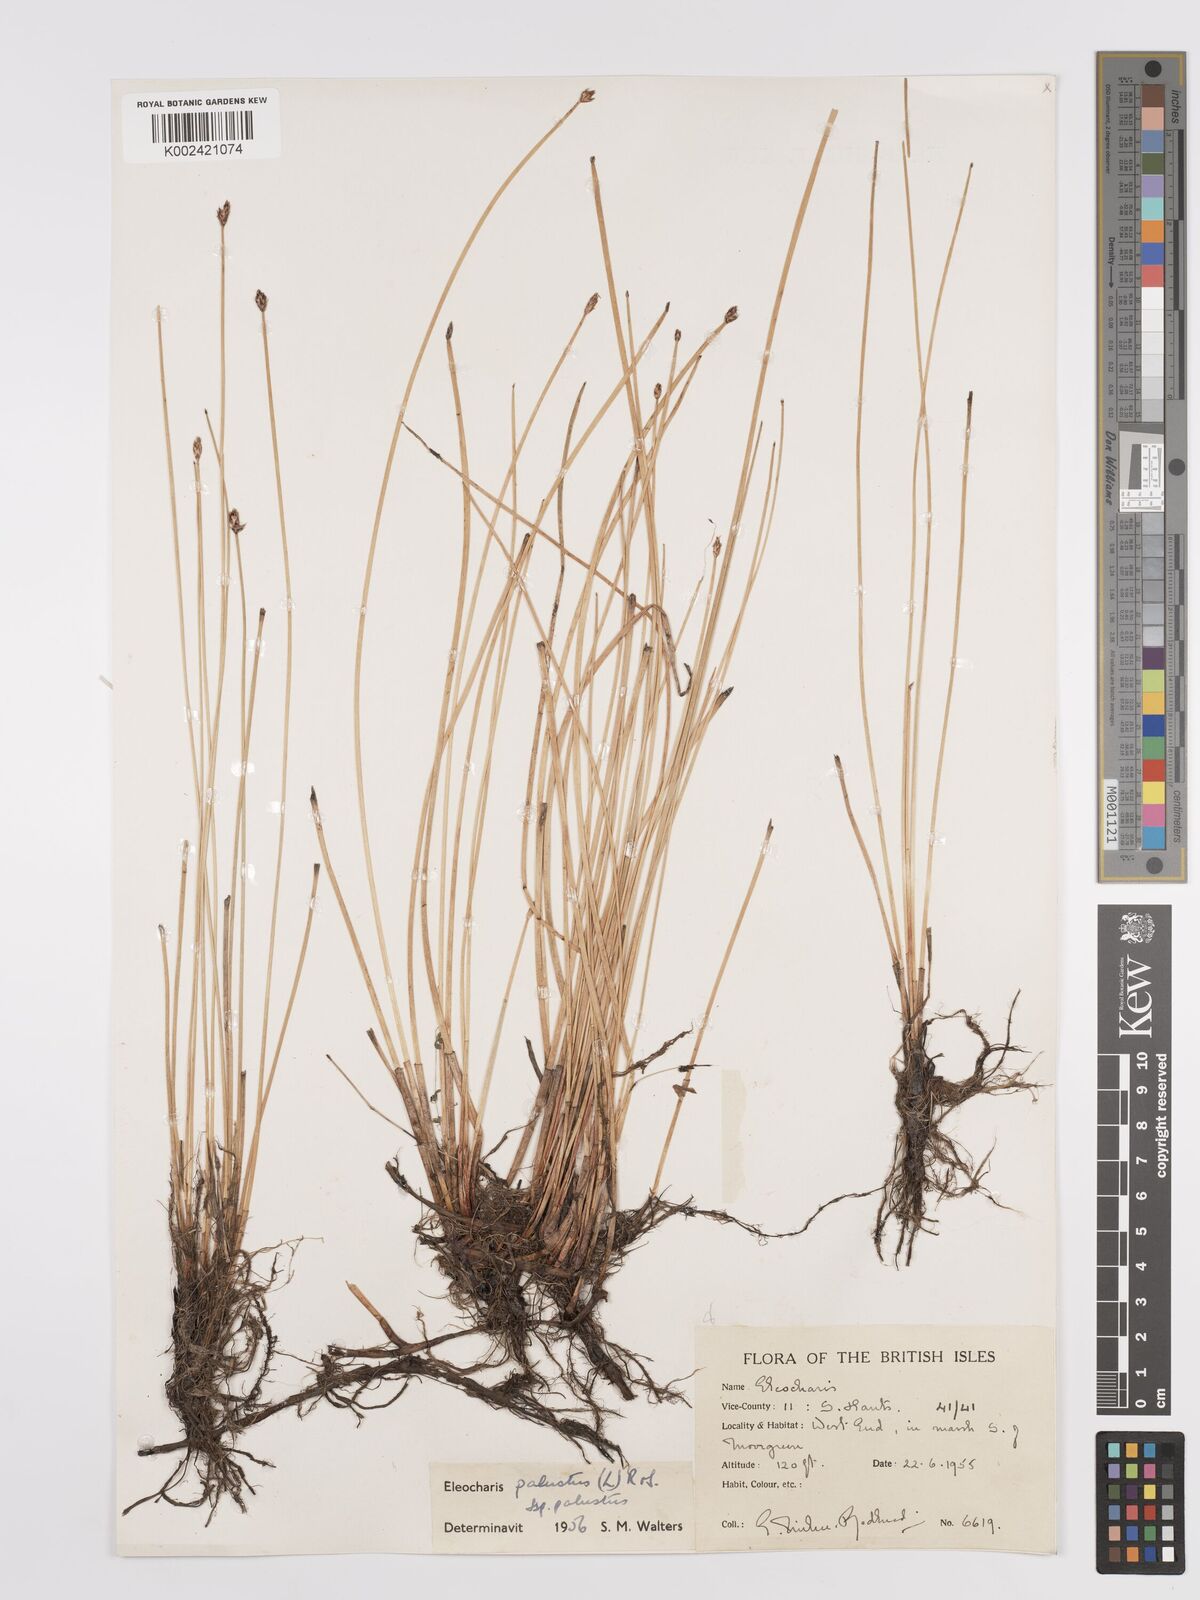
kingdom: Plantae
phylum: Tracheophyta
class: Liliopsida
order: Poales
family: Cyperaceae
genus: Eleocharis
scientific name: Eleocharis palustris
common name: Common spike-rush
